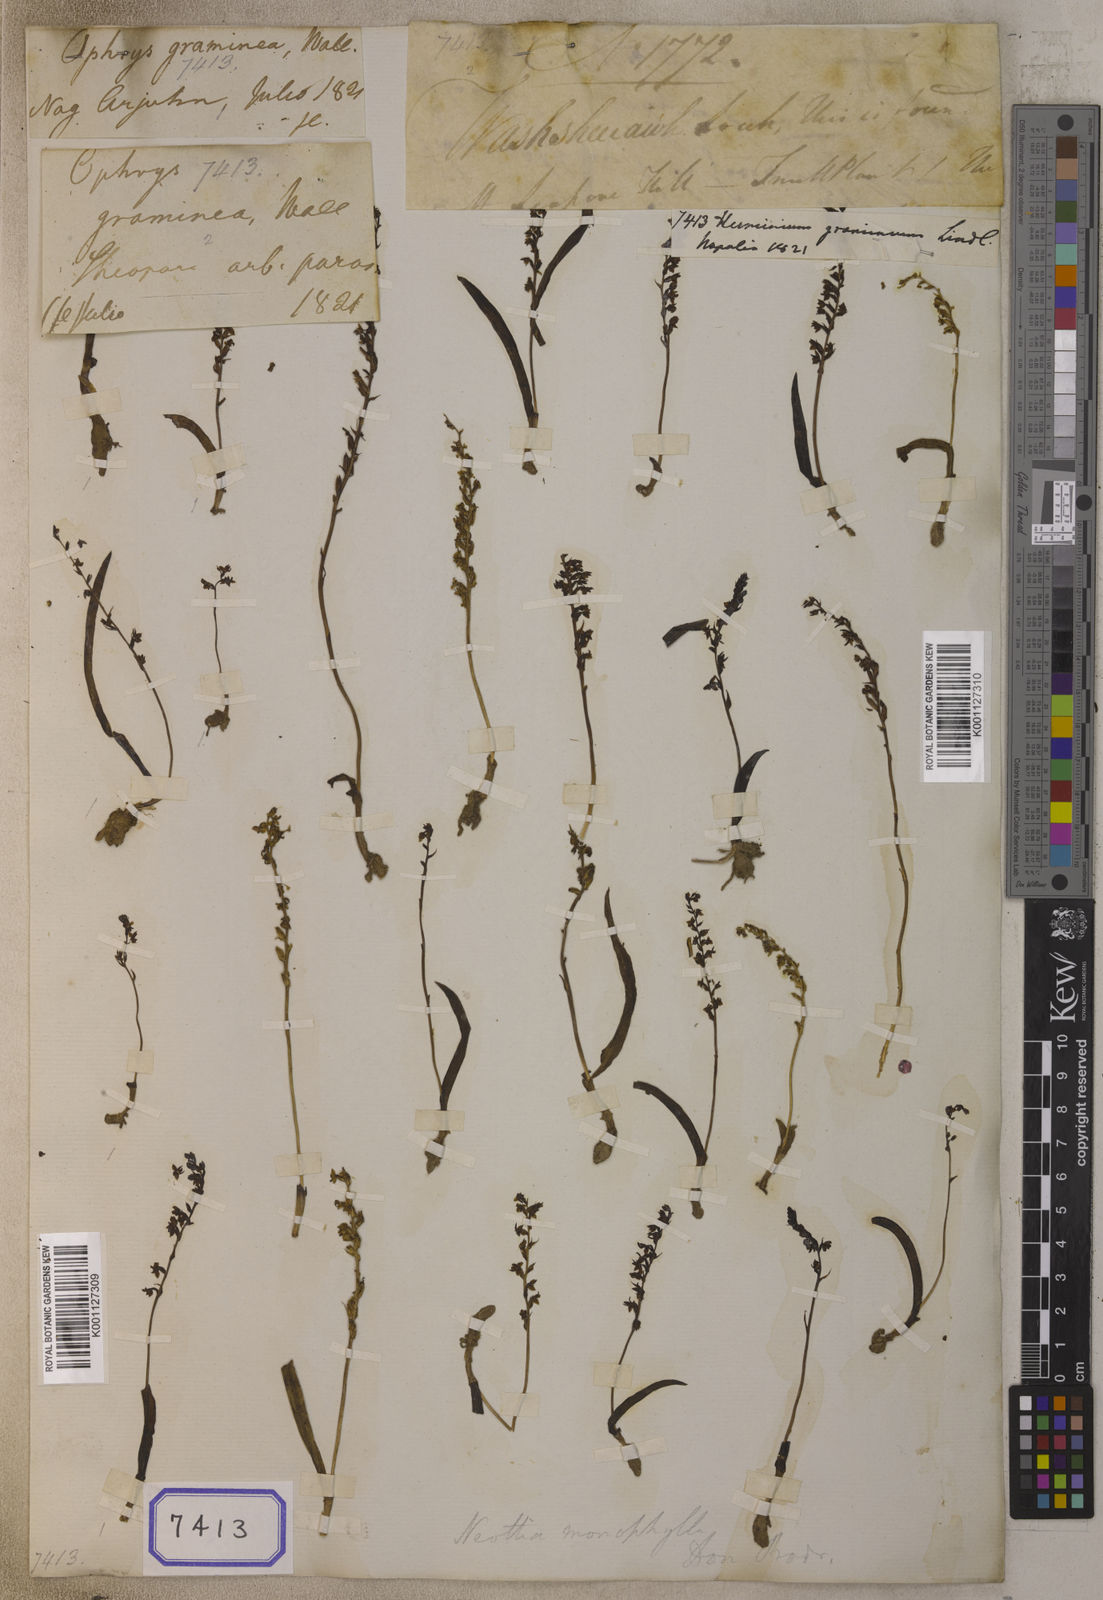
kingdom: Plantae
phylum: Tracheophyta
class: Liliopsida
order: Asparagales
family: Orchidaceae
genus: Herminium
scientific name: Herminium monophyllum
